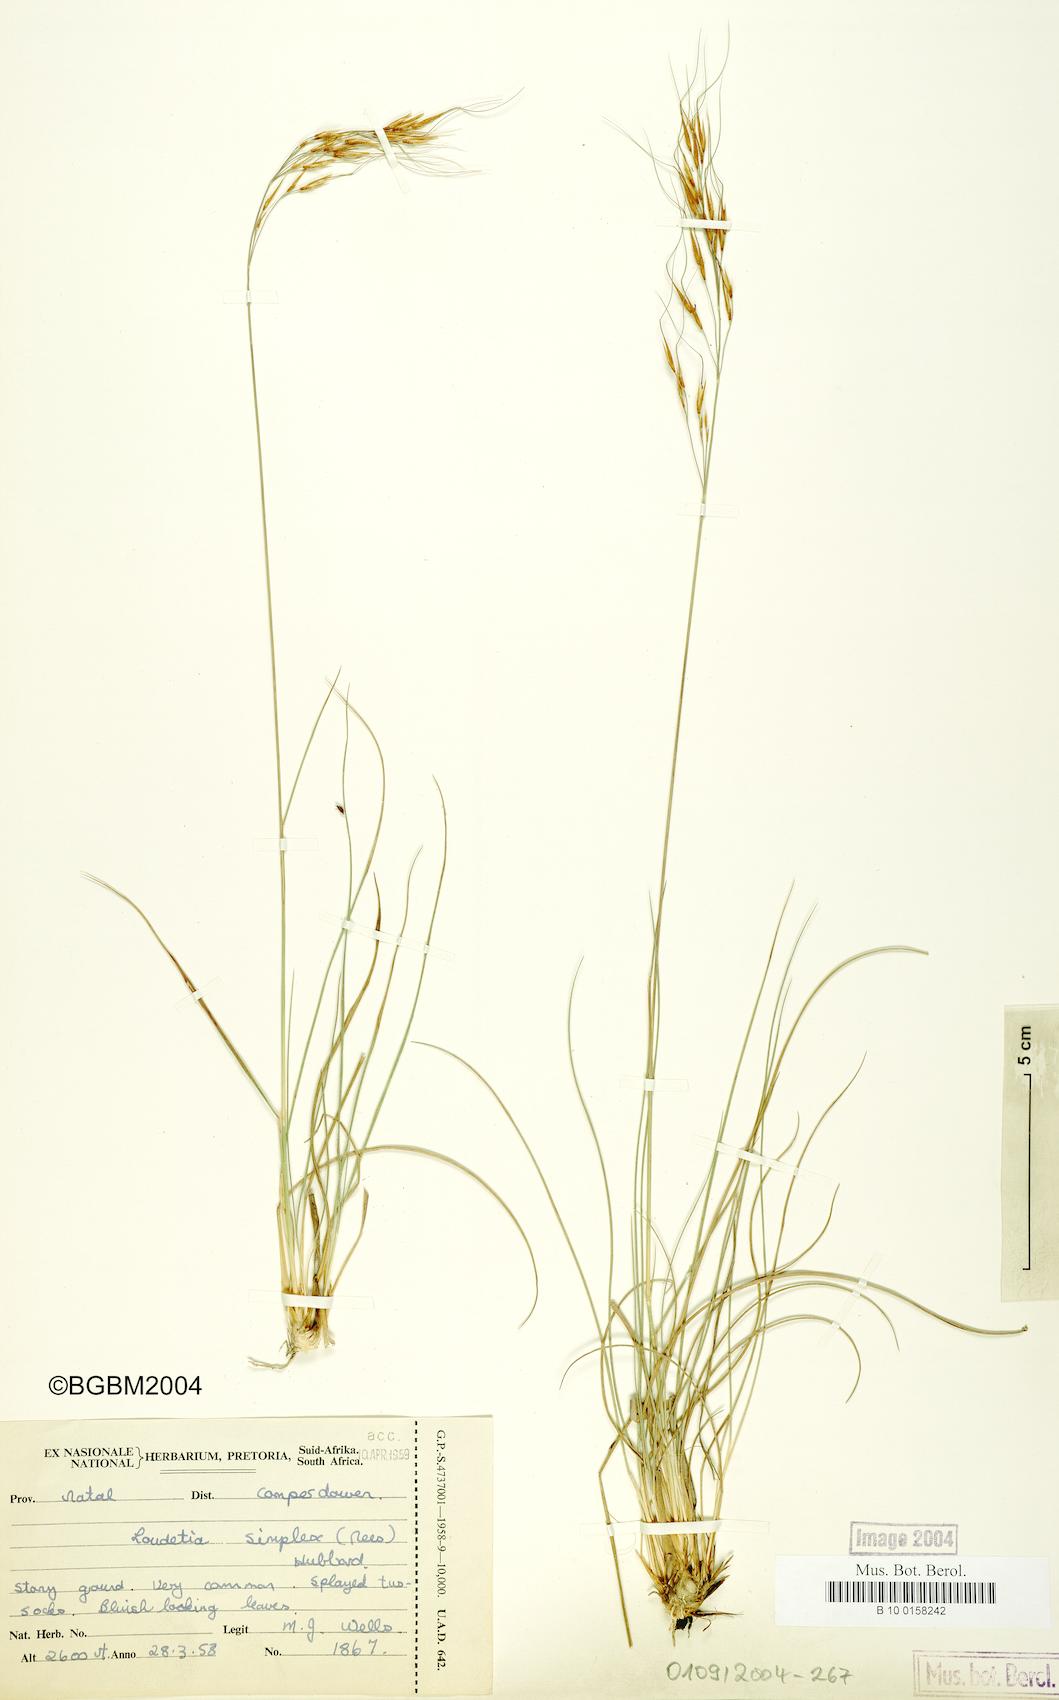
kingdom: Plantae
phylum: Tracheophyta
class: Liliopsida
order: Poales
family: Poaceae
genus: Loudetia
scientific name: Loudetia simplex
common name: Common russet grass
